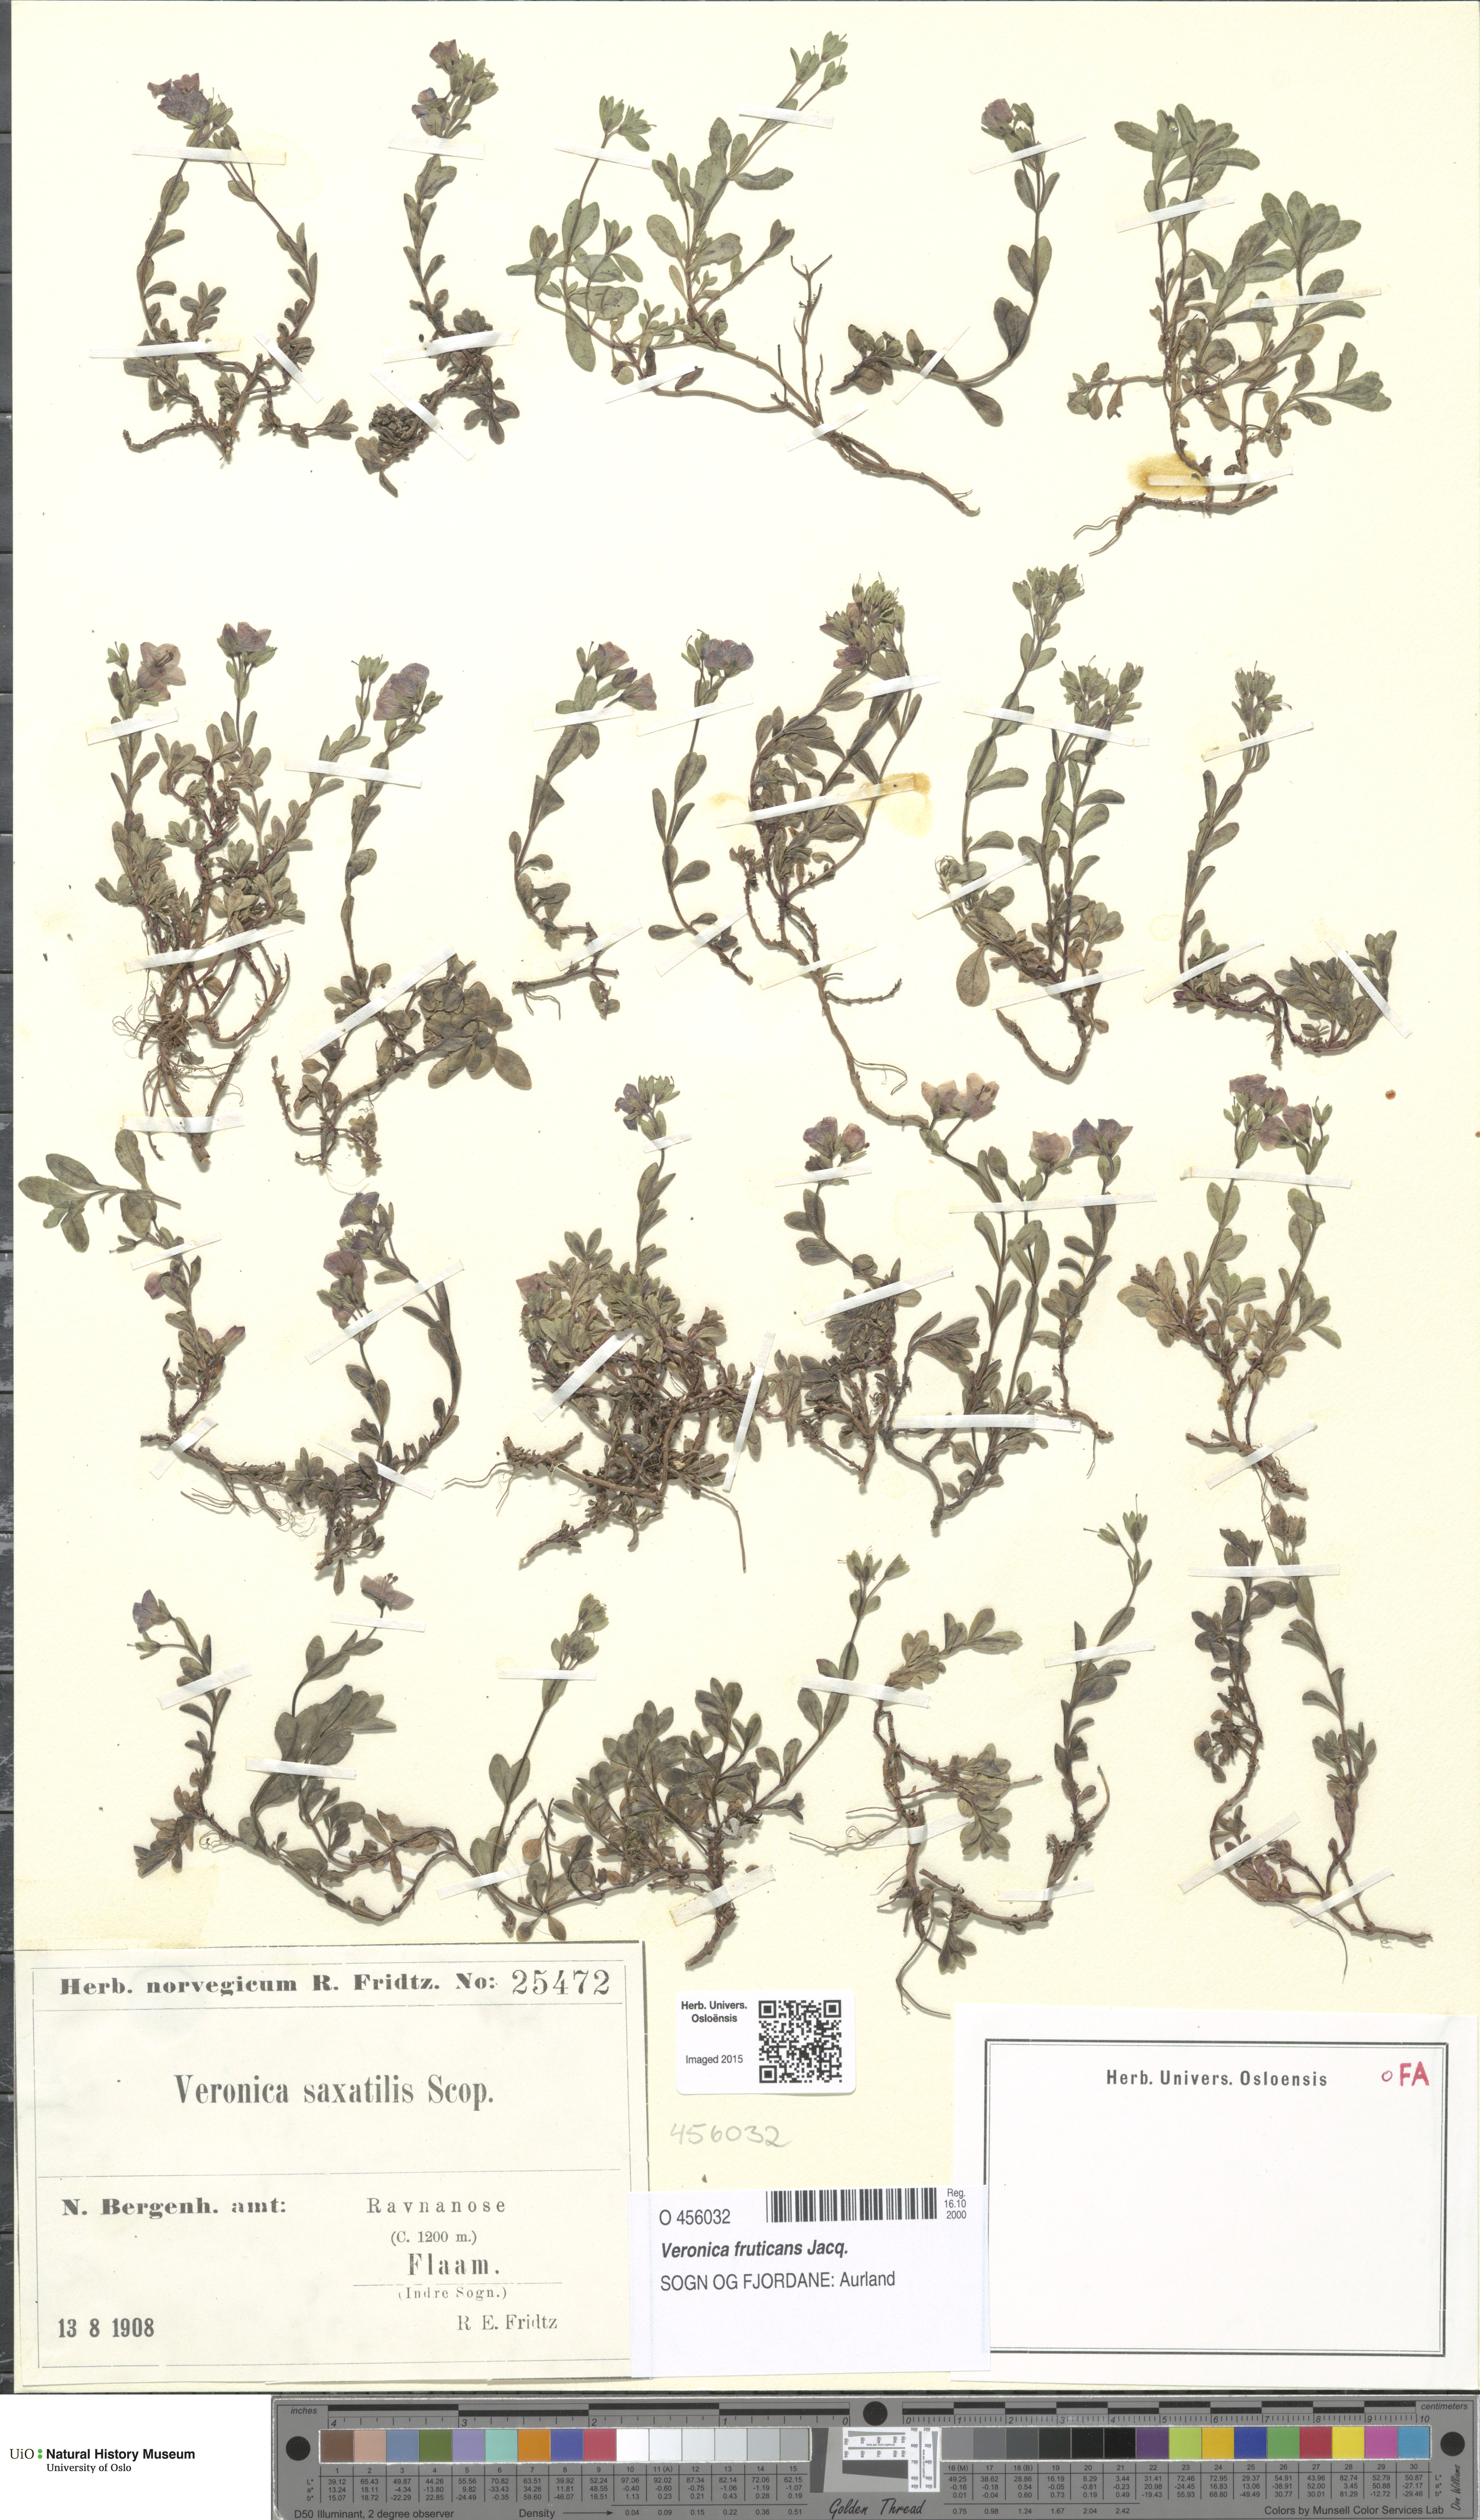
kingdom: Plantae
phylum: Tracheophyta
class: Magnoliopsida
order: Lamiales
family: Plantaginaceae
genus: Veronica
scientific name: Veronica fruticans
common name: Rock speedwell
